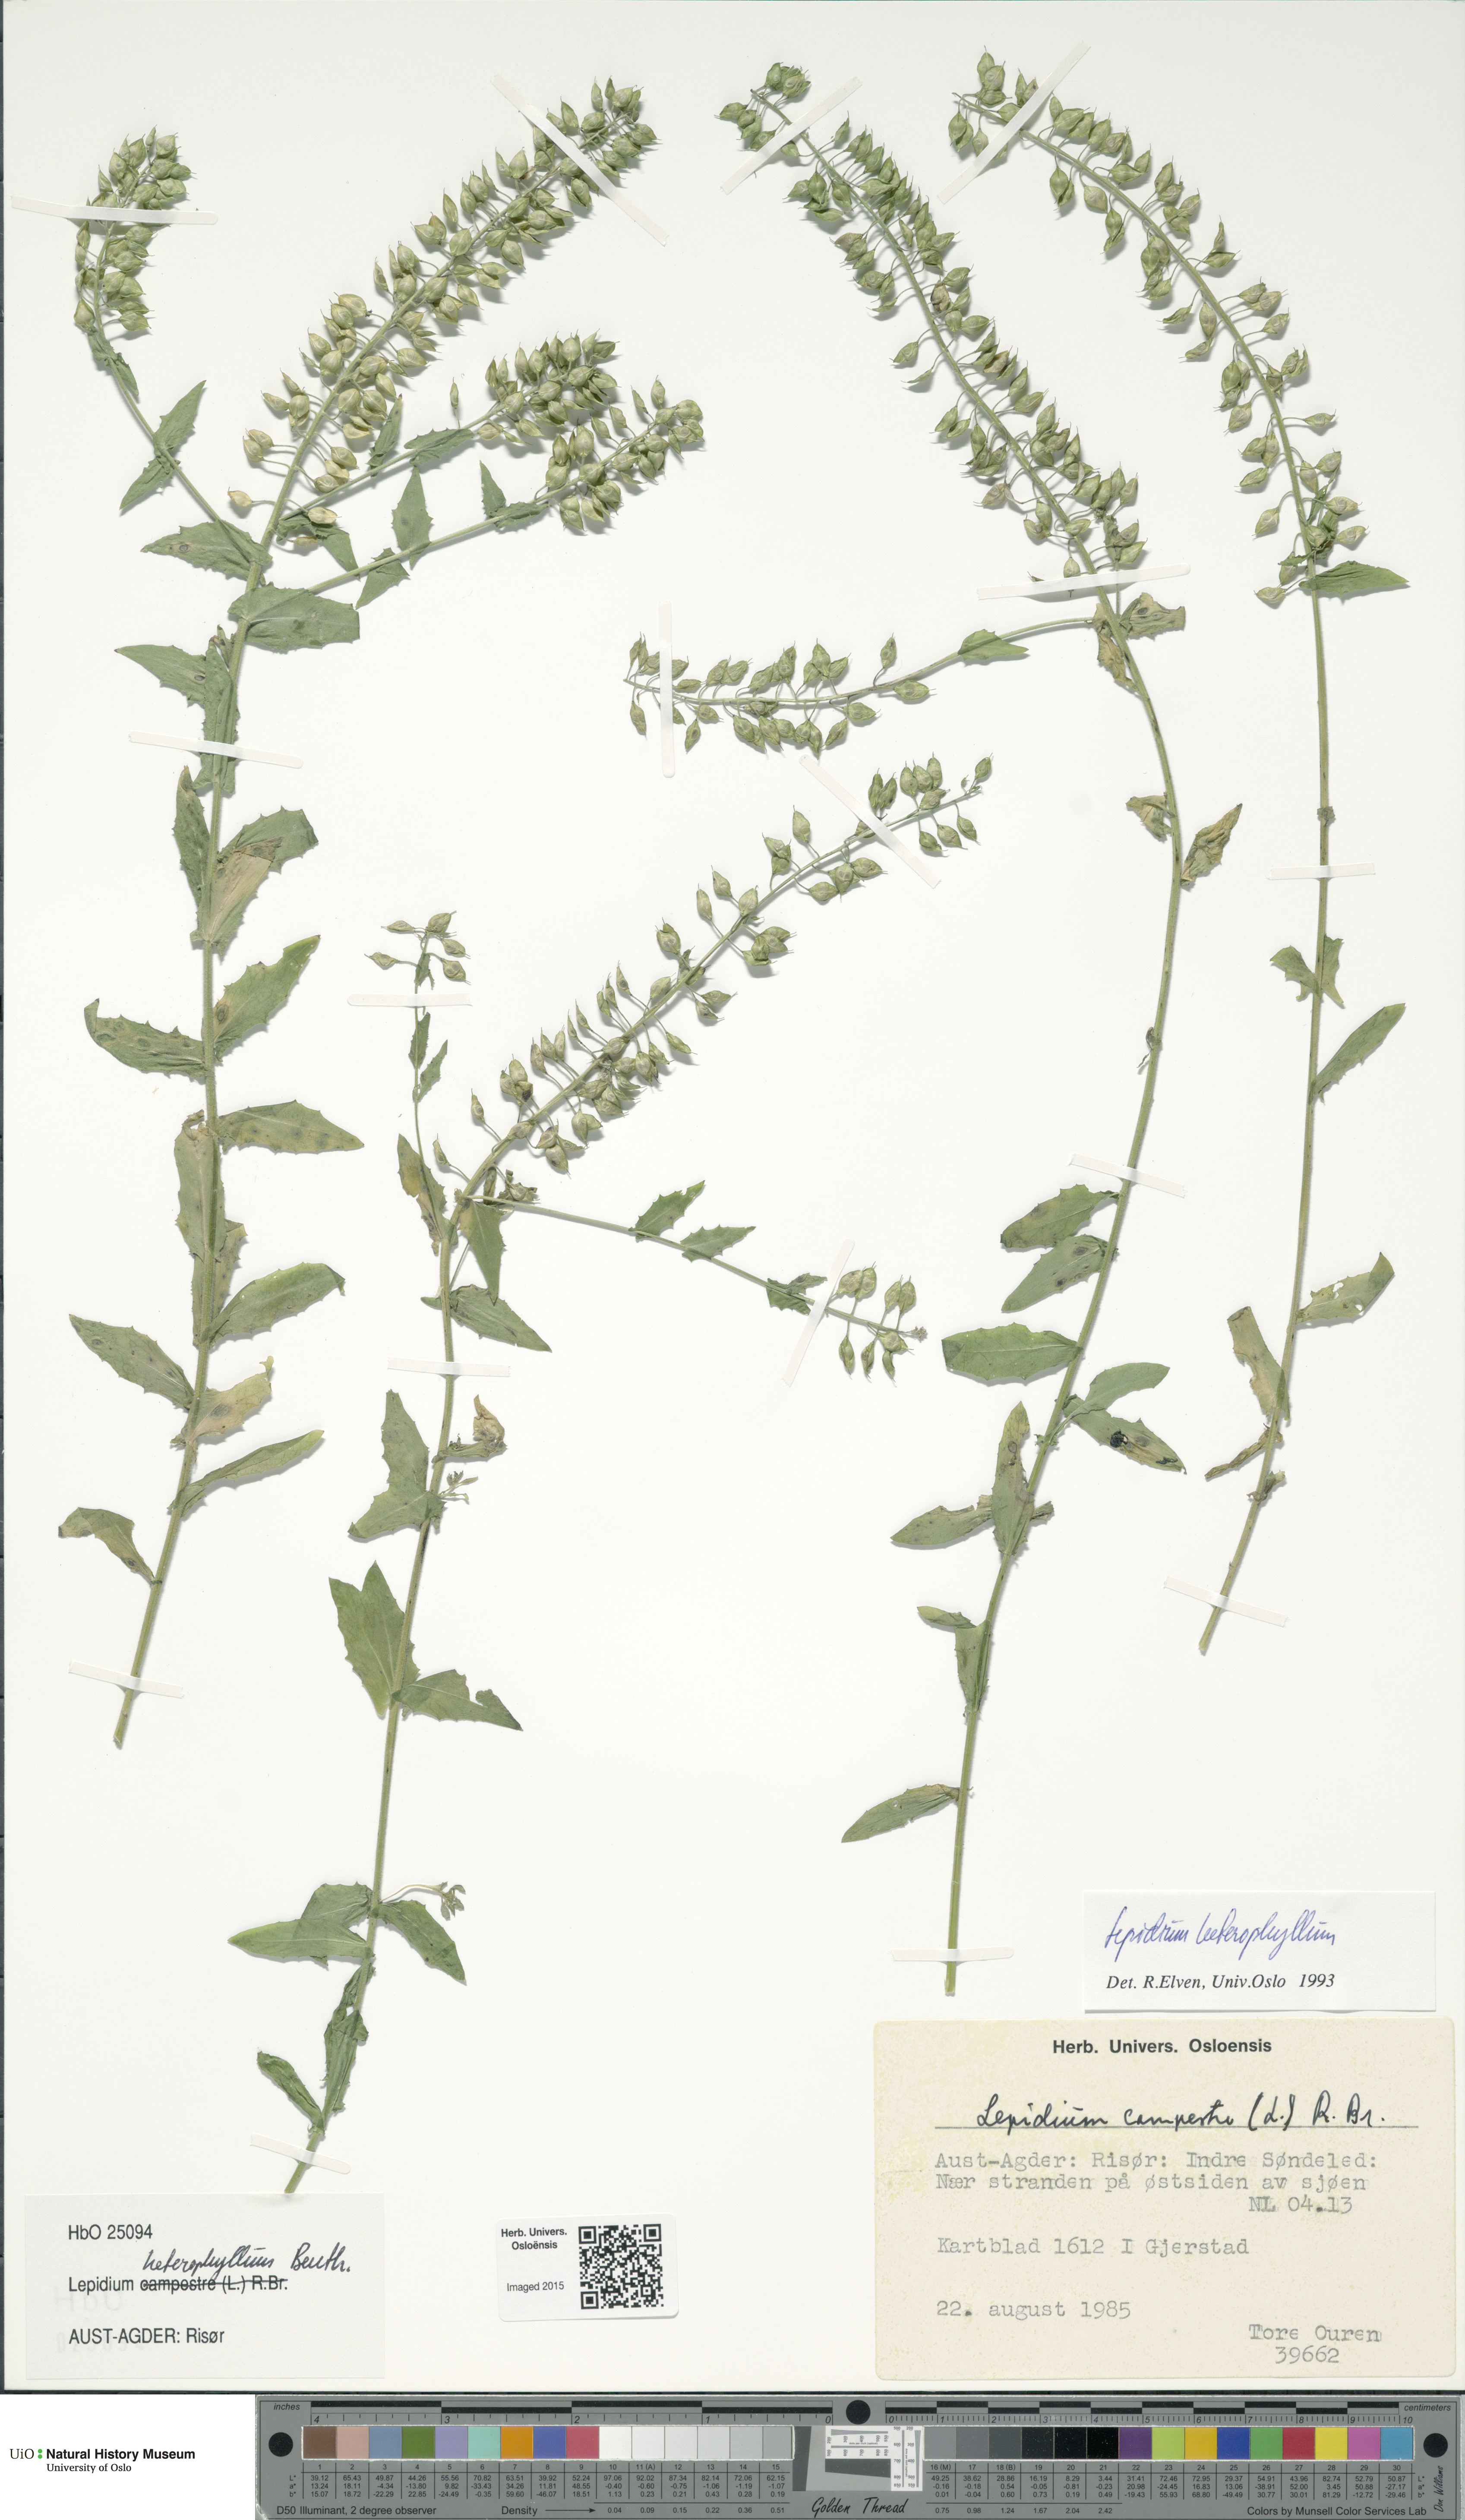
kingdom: Plantae
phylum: Tracheophyta
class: Magnoliopsida
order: Brassicales
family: Brassicaceae
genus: Lepidium
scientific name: Lepidium heterophyllum
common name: Smith's pepperwort
